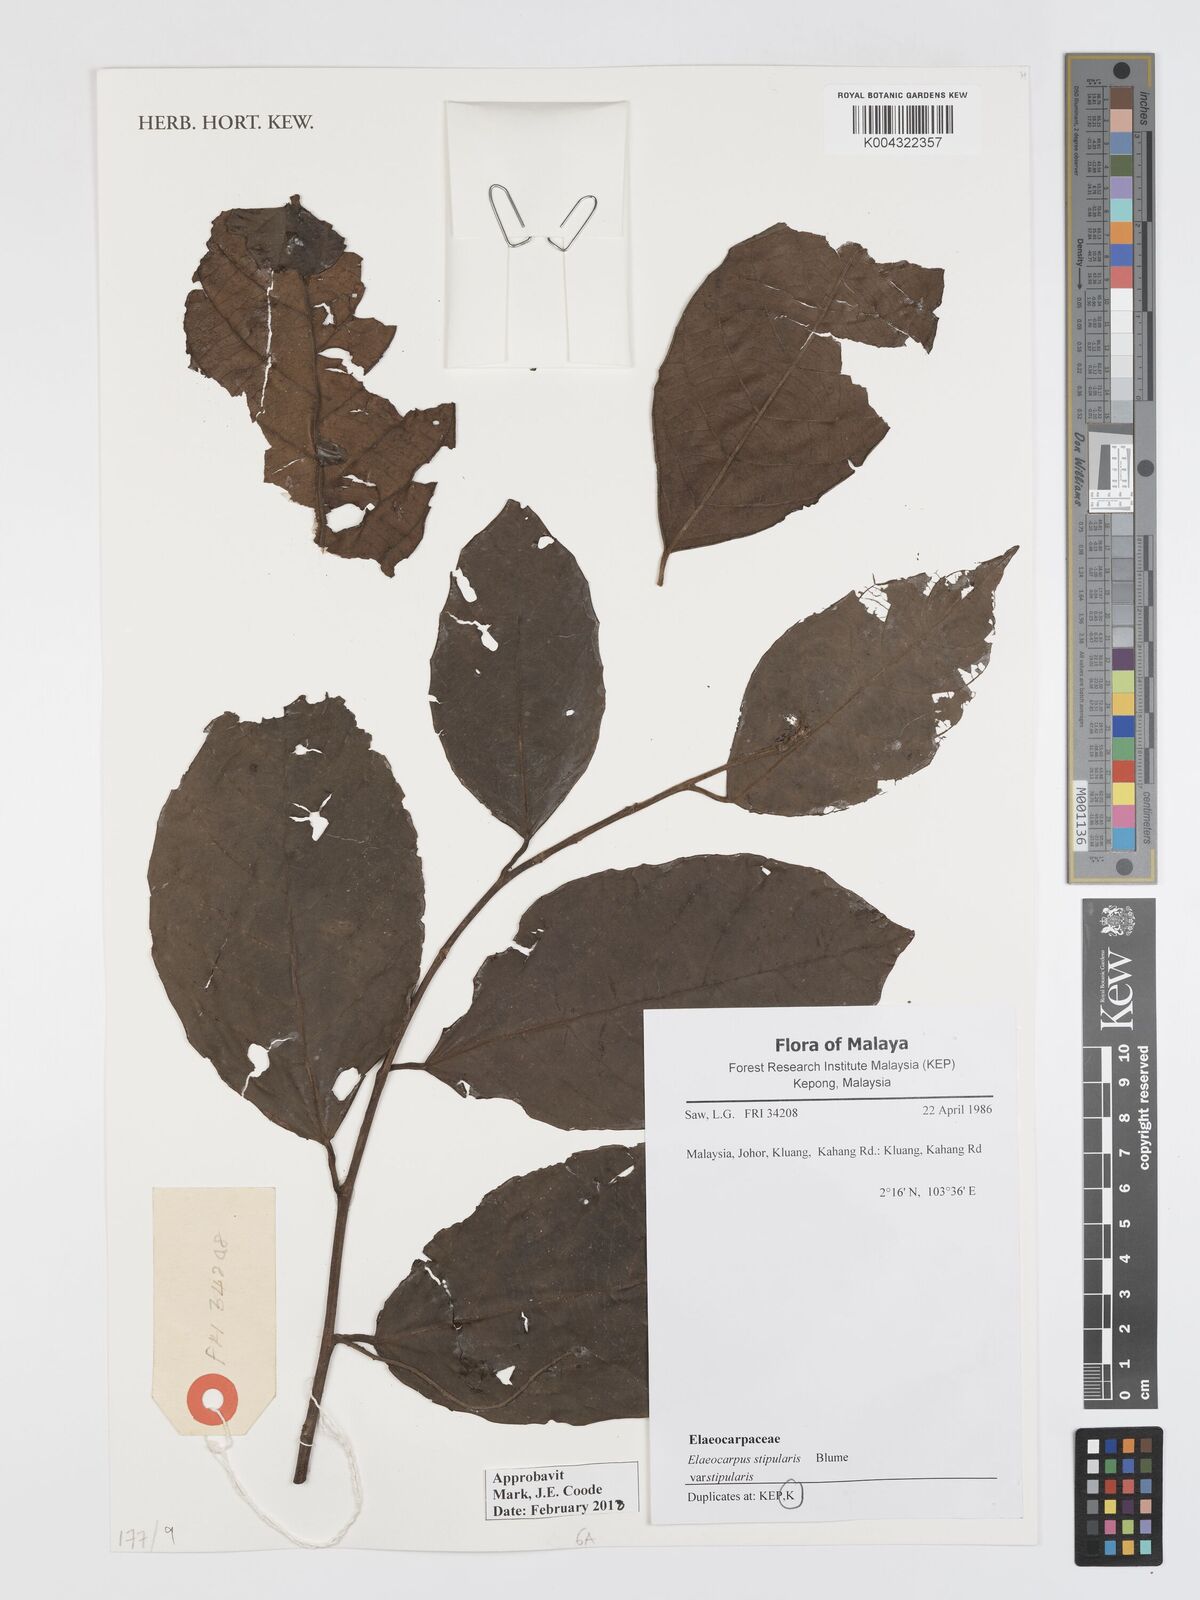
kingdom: Plantae
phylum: Tracheophyta
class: Magnoliopsida
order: Oxalidales
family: Elaeocarpaceae
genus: Elaeocarpus
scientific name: Elaeocarpus stipularis
